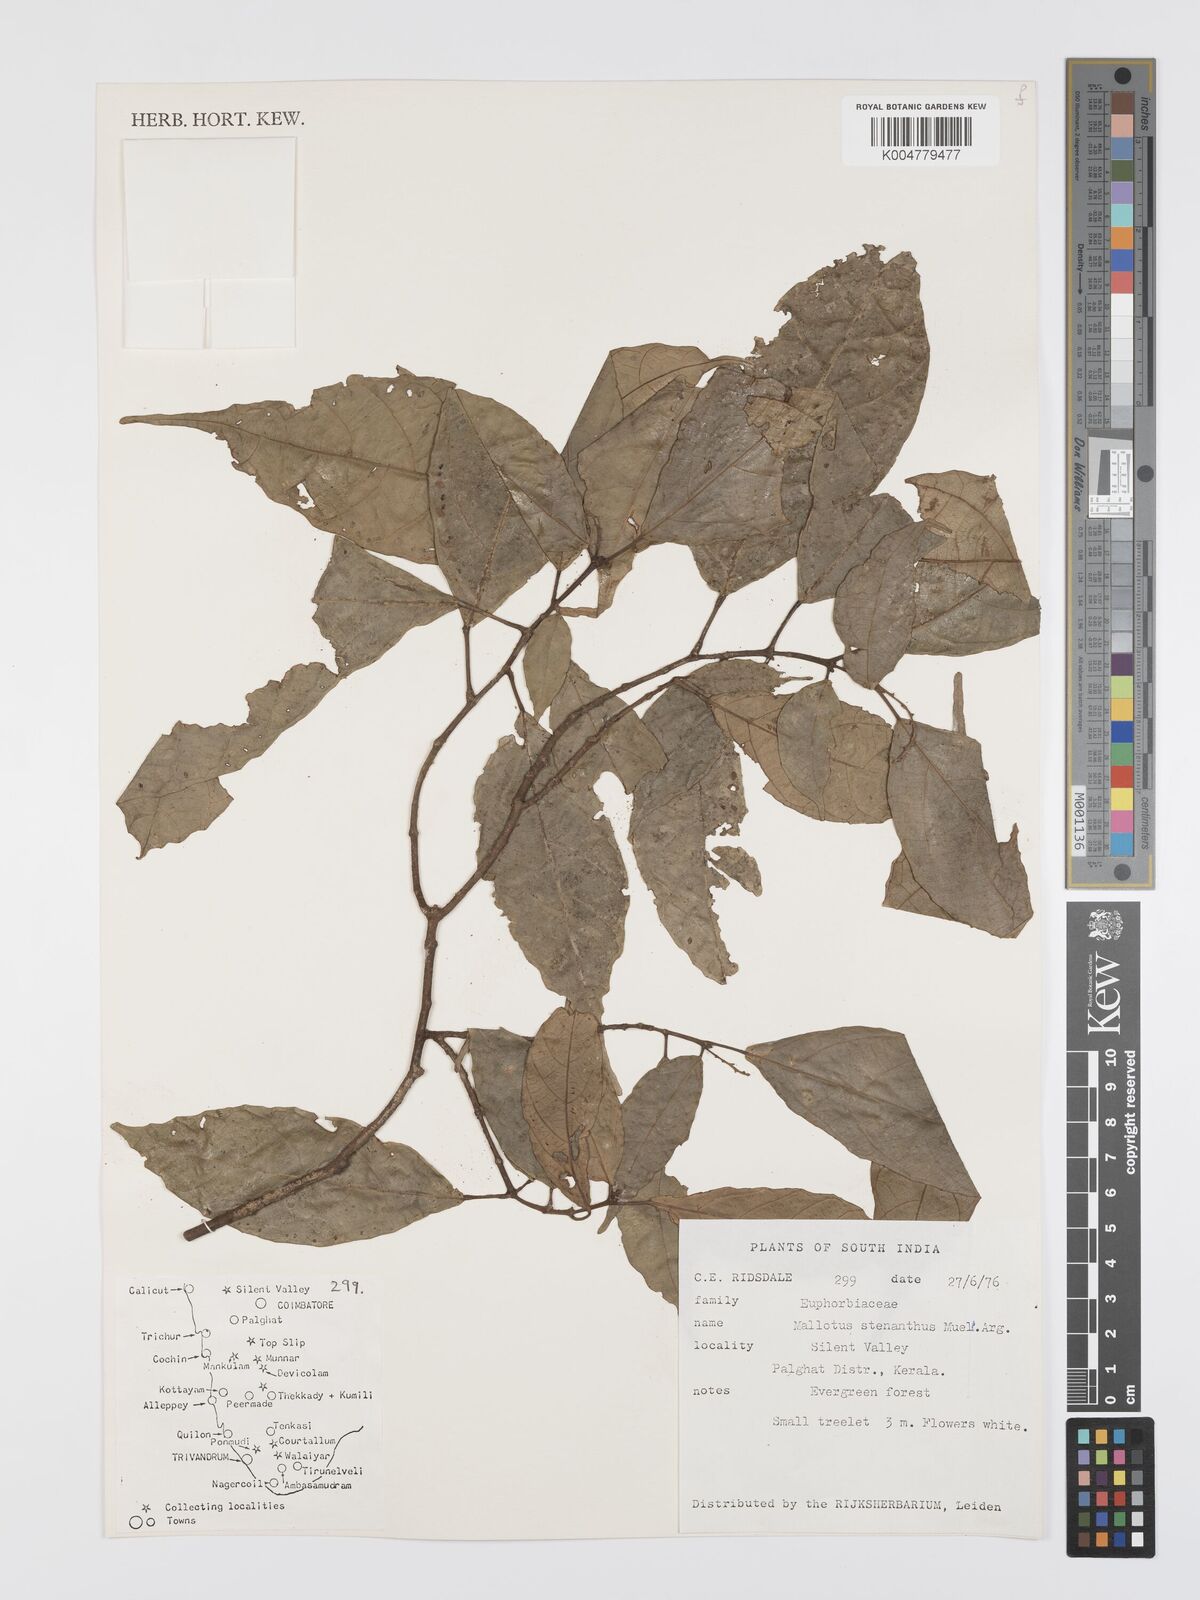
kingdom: Plantae
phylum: Tracheophyta
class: Magnoliopsida
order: Malpighiales
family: Euphorbiaceae
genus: Mallotus
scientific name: Mallotus resinosus
